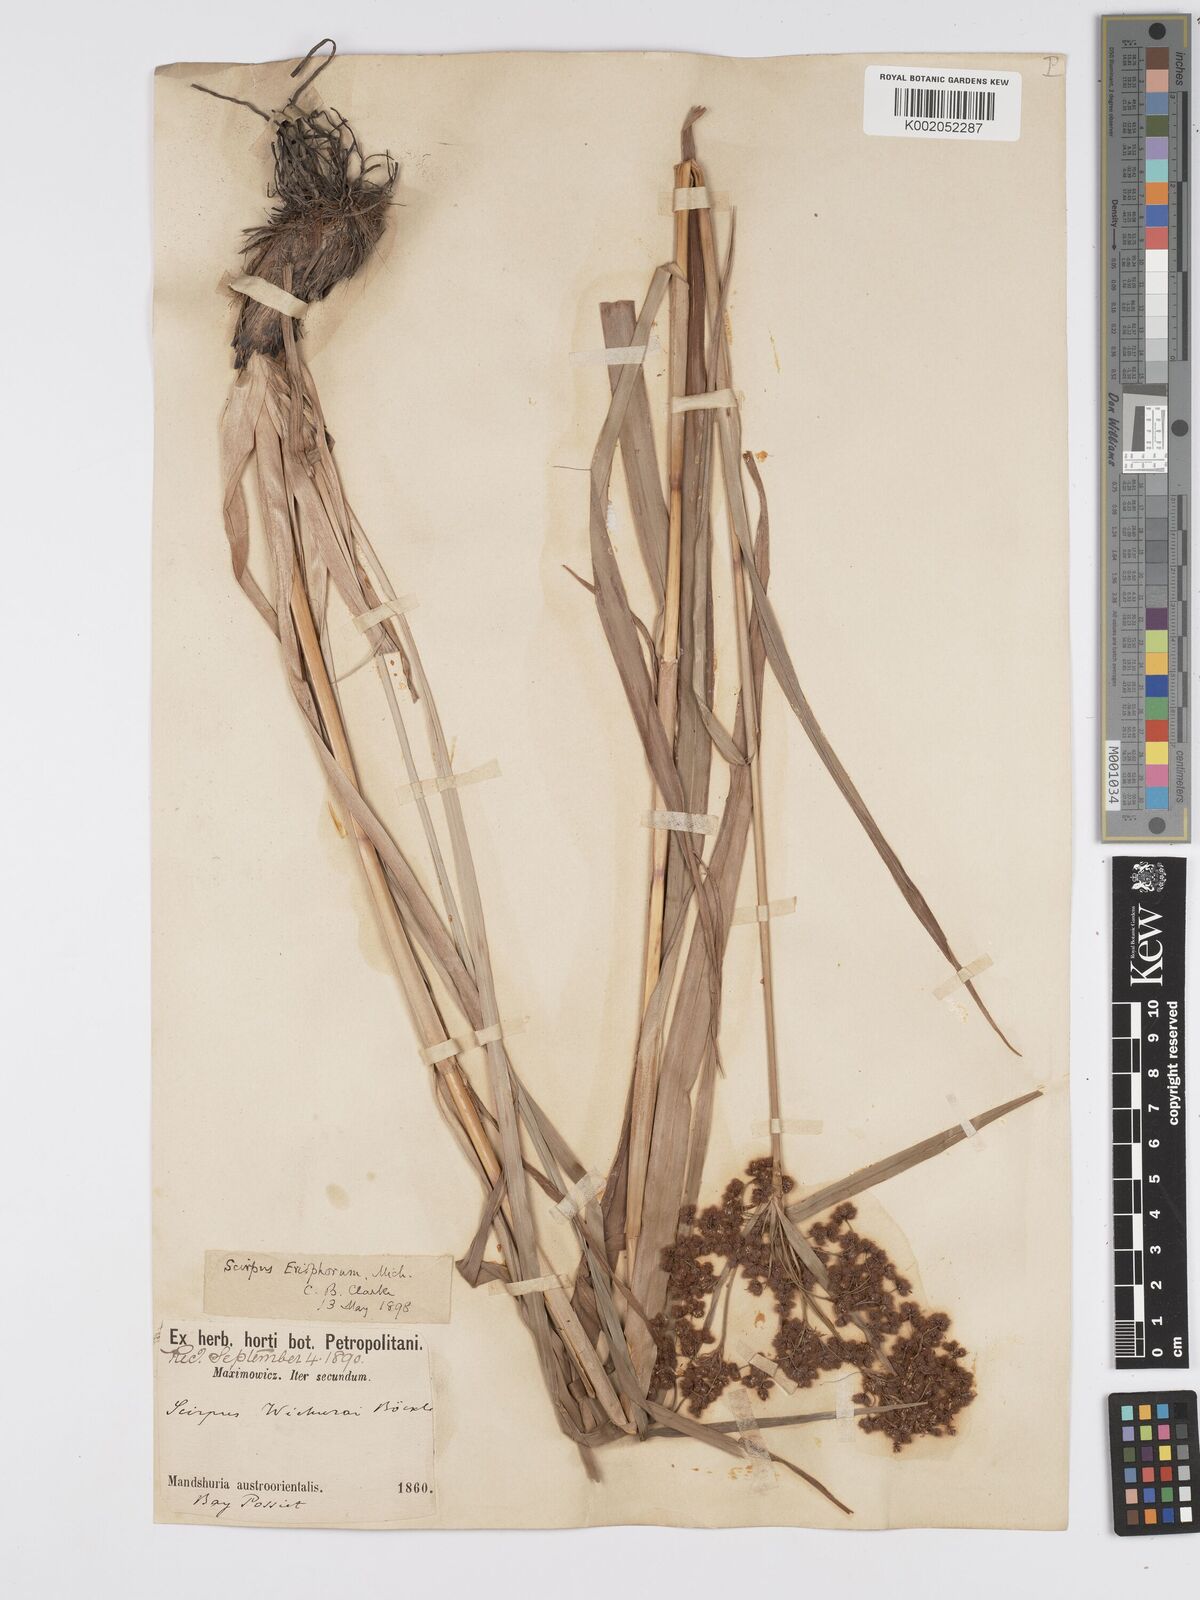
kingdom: Plantae
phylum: Tracheophyta
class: Liliopsida
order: Poales
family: Cyperaceae
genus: Scirpus
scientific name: Scirpus cyperinus
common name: Black-sheathed bulrush
